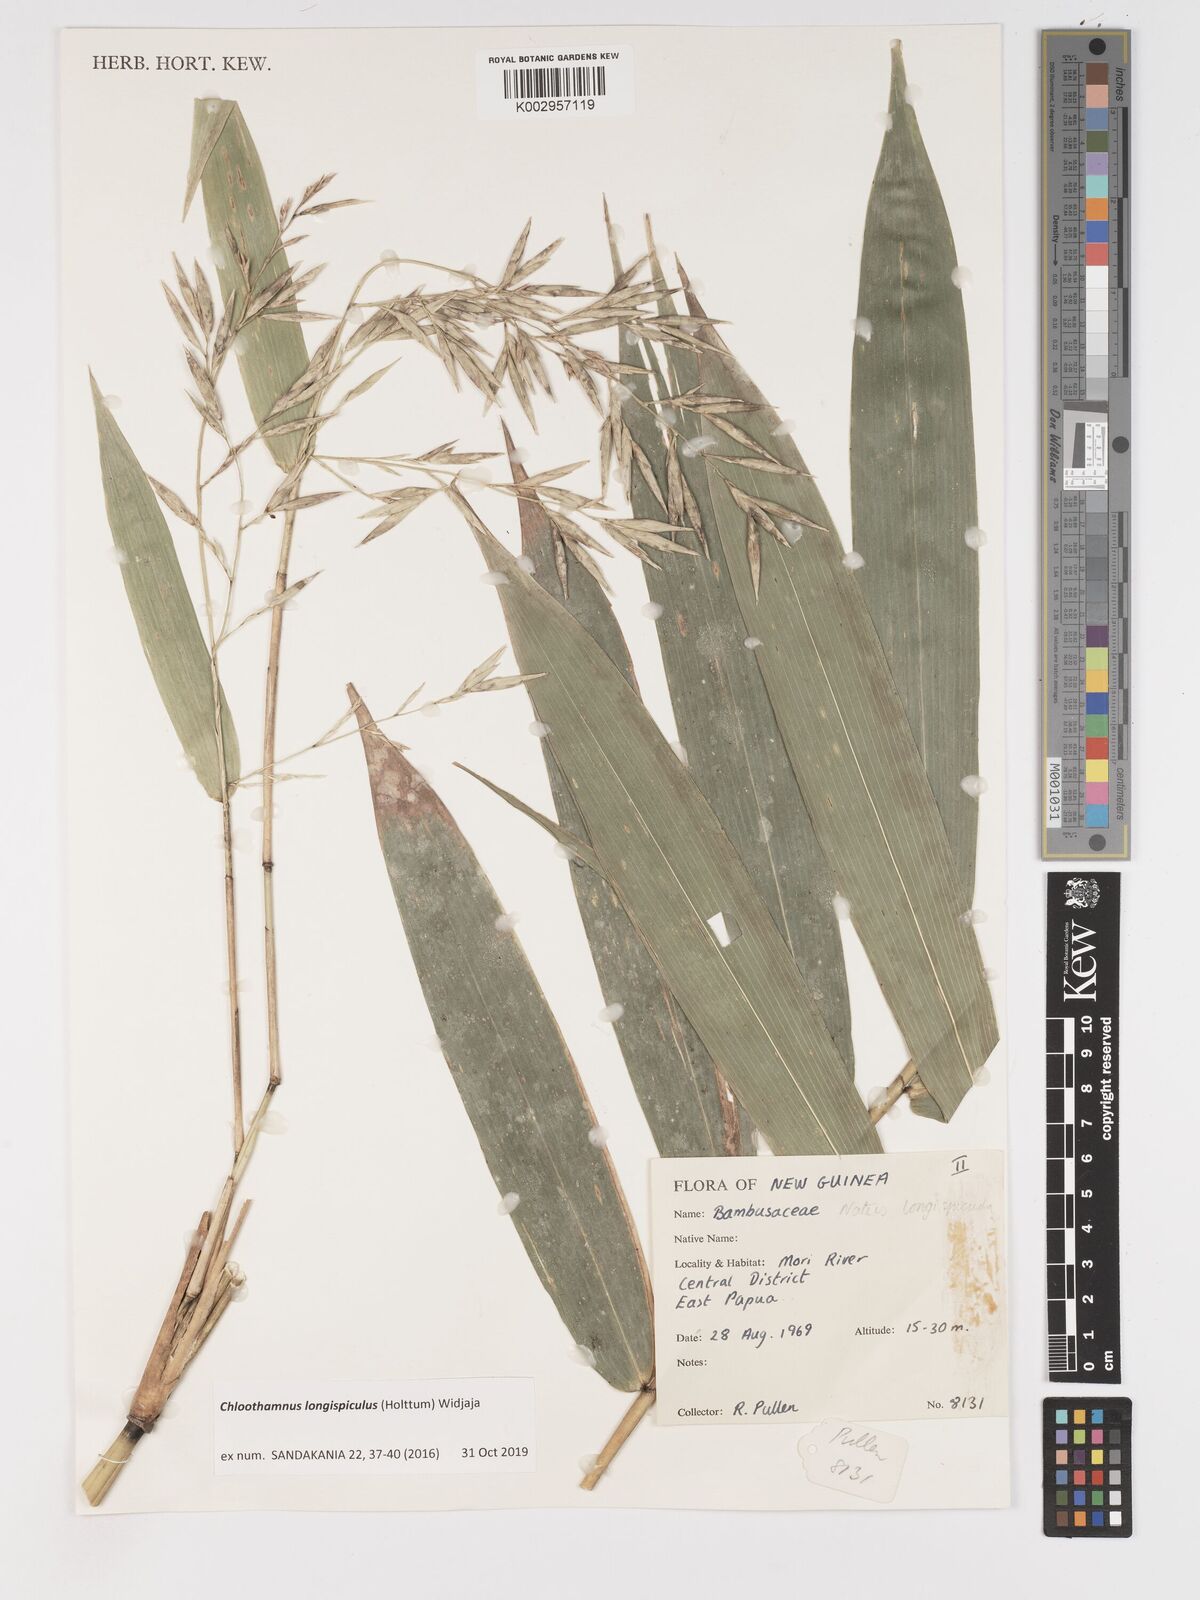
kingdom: Plantae
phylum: Tracheophyta
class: Liliopsida
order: Poales
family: Poaceae
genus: Chloothamnus
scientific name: Chloothamnus longispiculus
